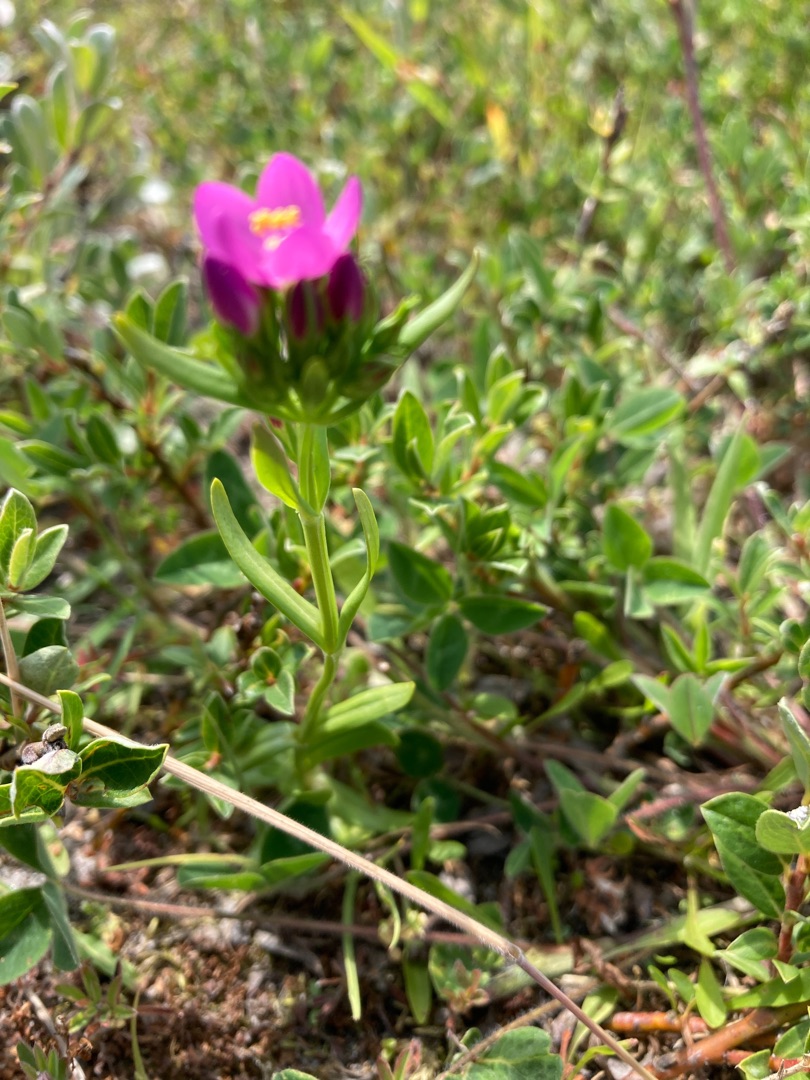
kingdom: Plantae
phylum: Tracheophyta
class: Magnoliopsida
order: Gentianales
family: Gentianaceae
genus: Centaurium
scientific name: Centaurium littorale
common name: Strand-tusindgylden
